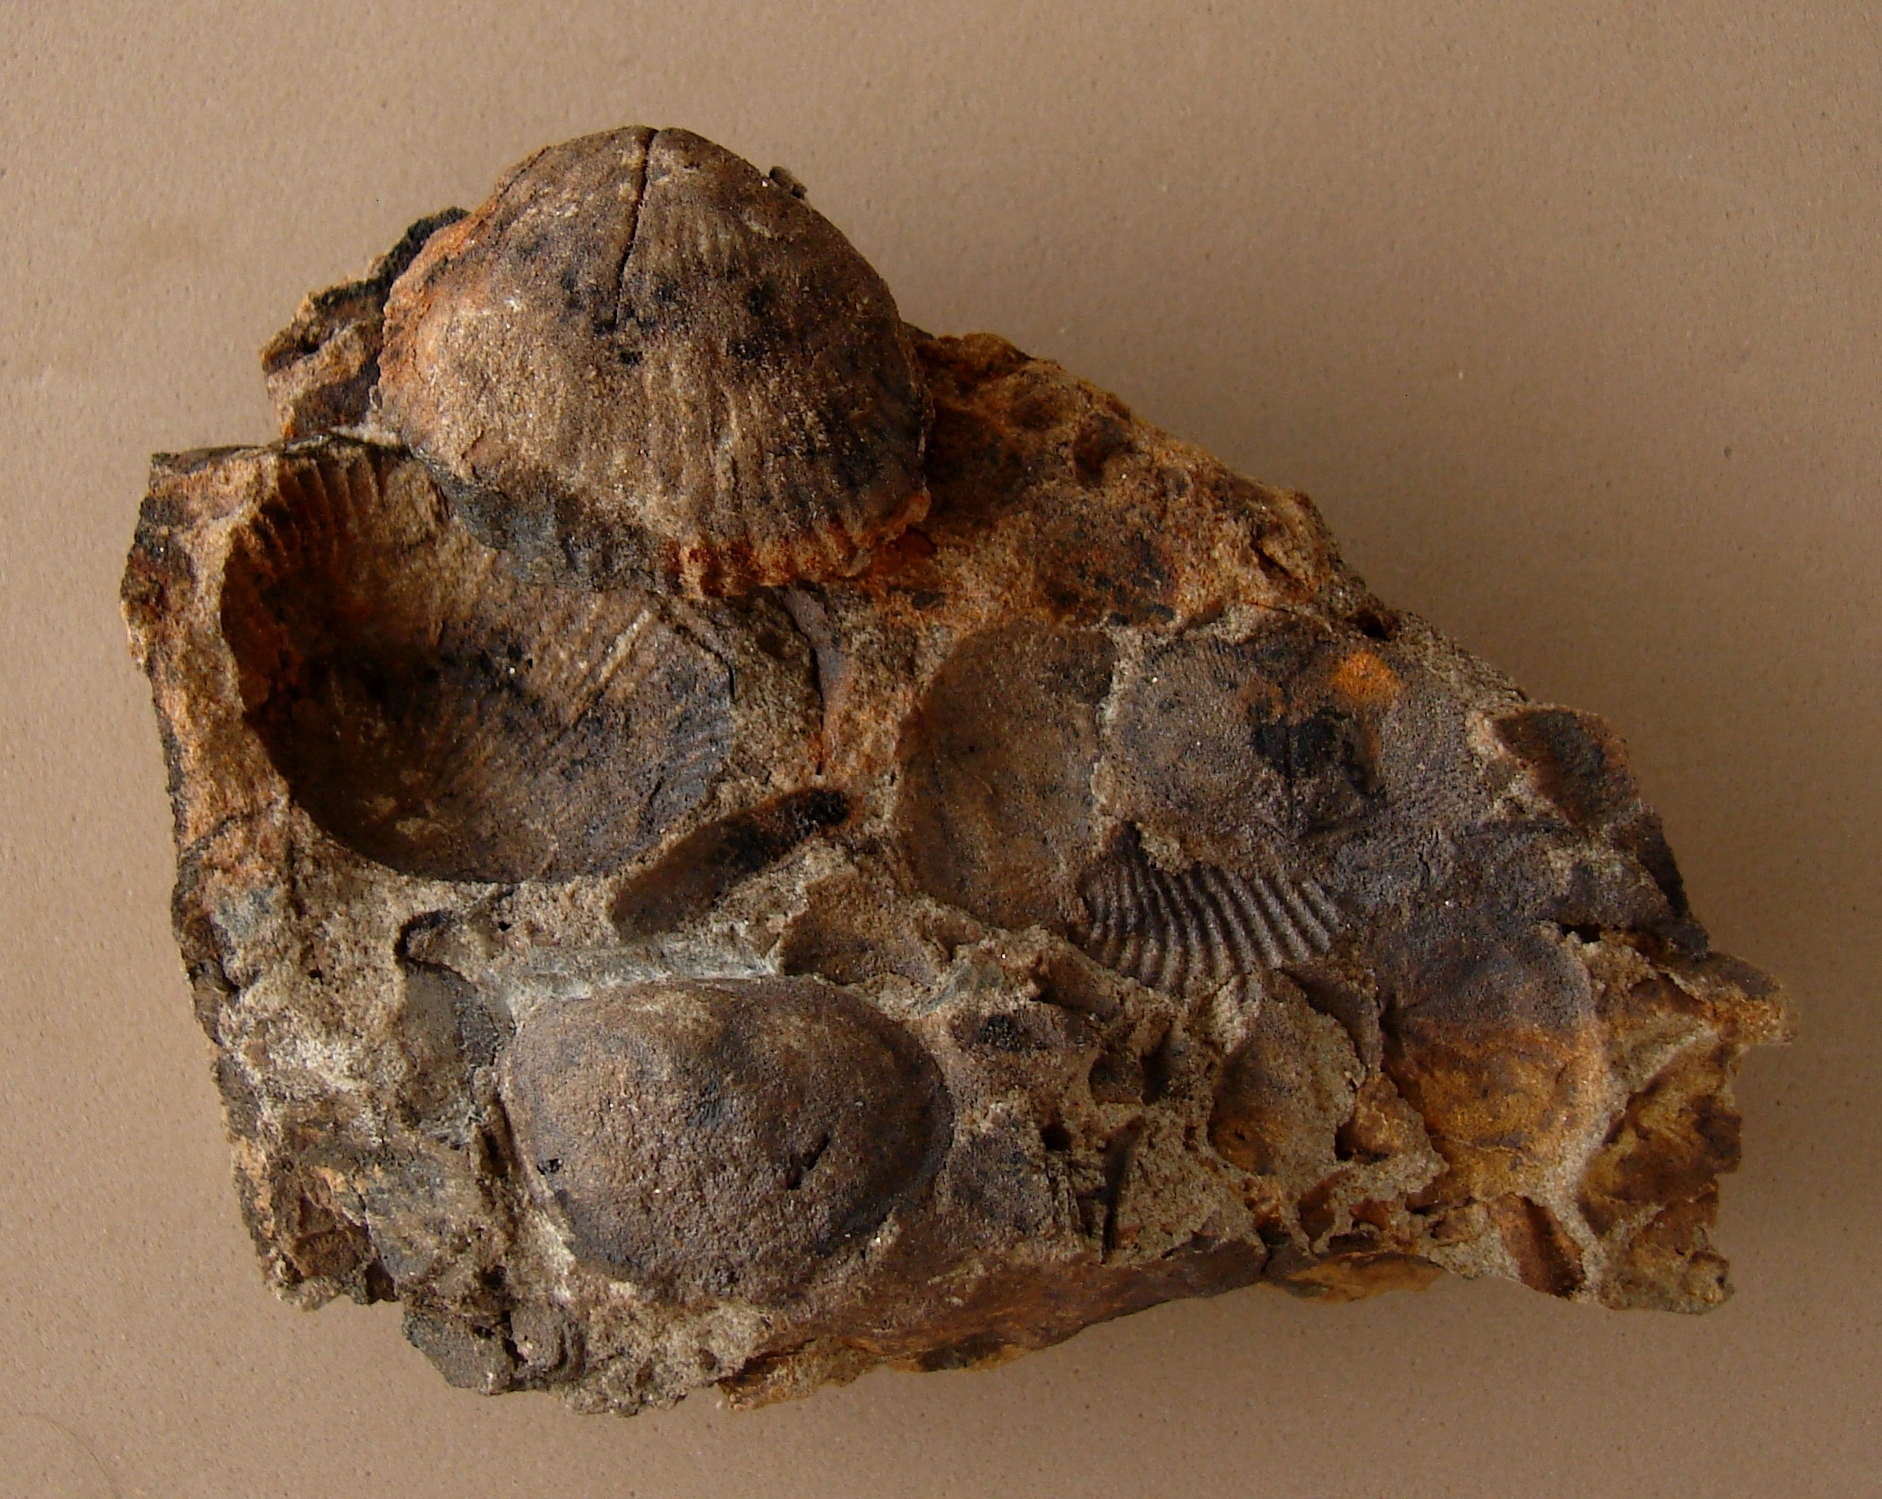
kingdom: Animalia
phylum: Arthropoda
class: Insecta
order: Hemiptera
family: Cercopidae
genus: Straelenia
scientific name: Straelenia
